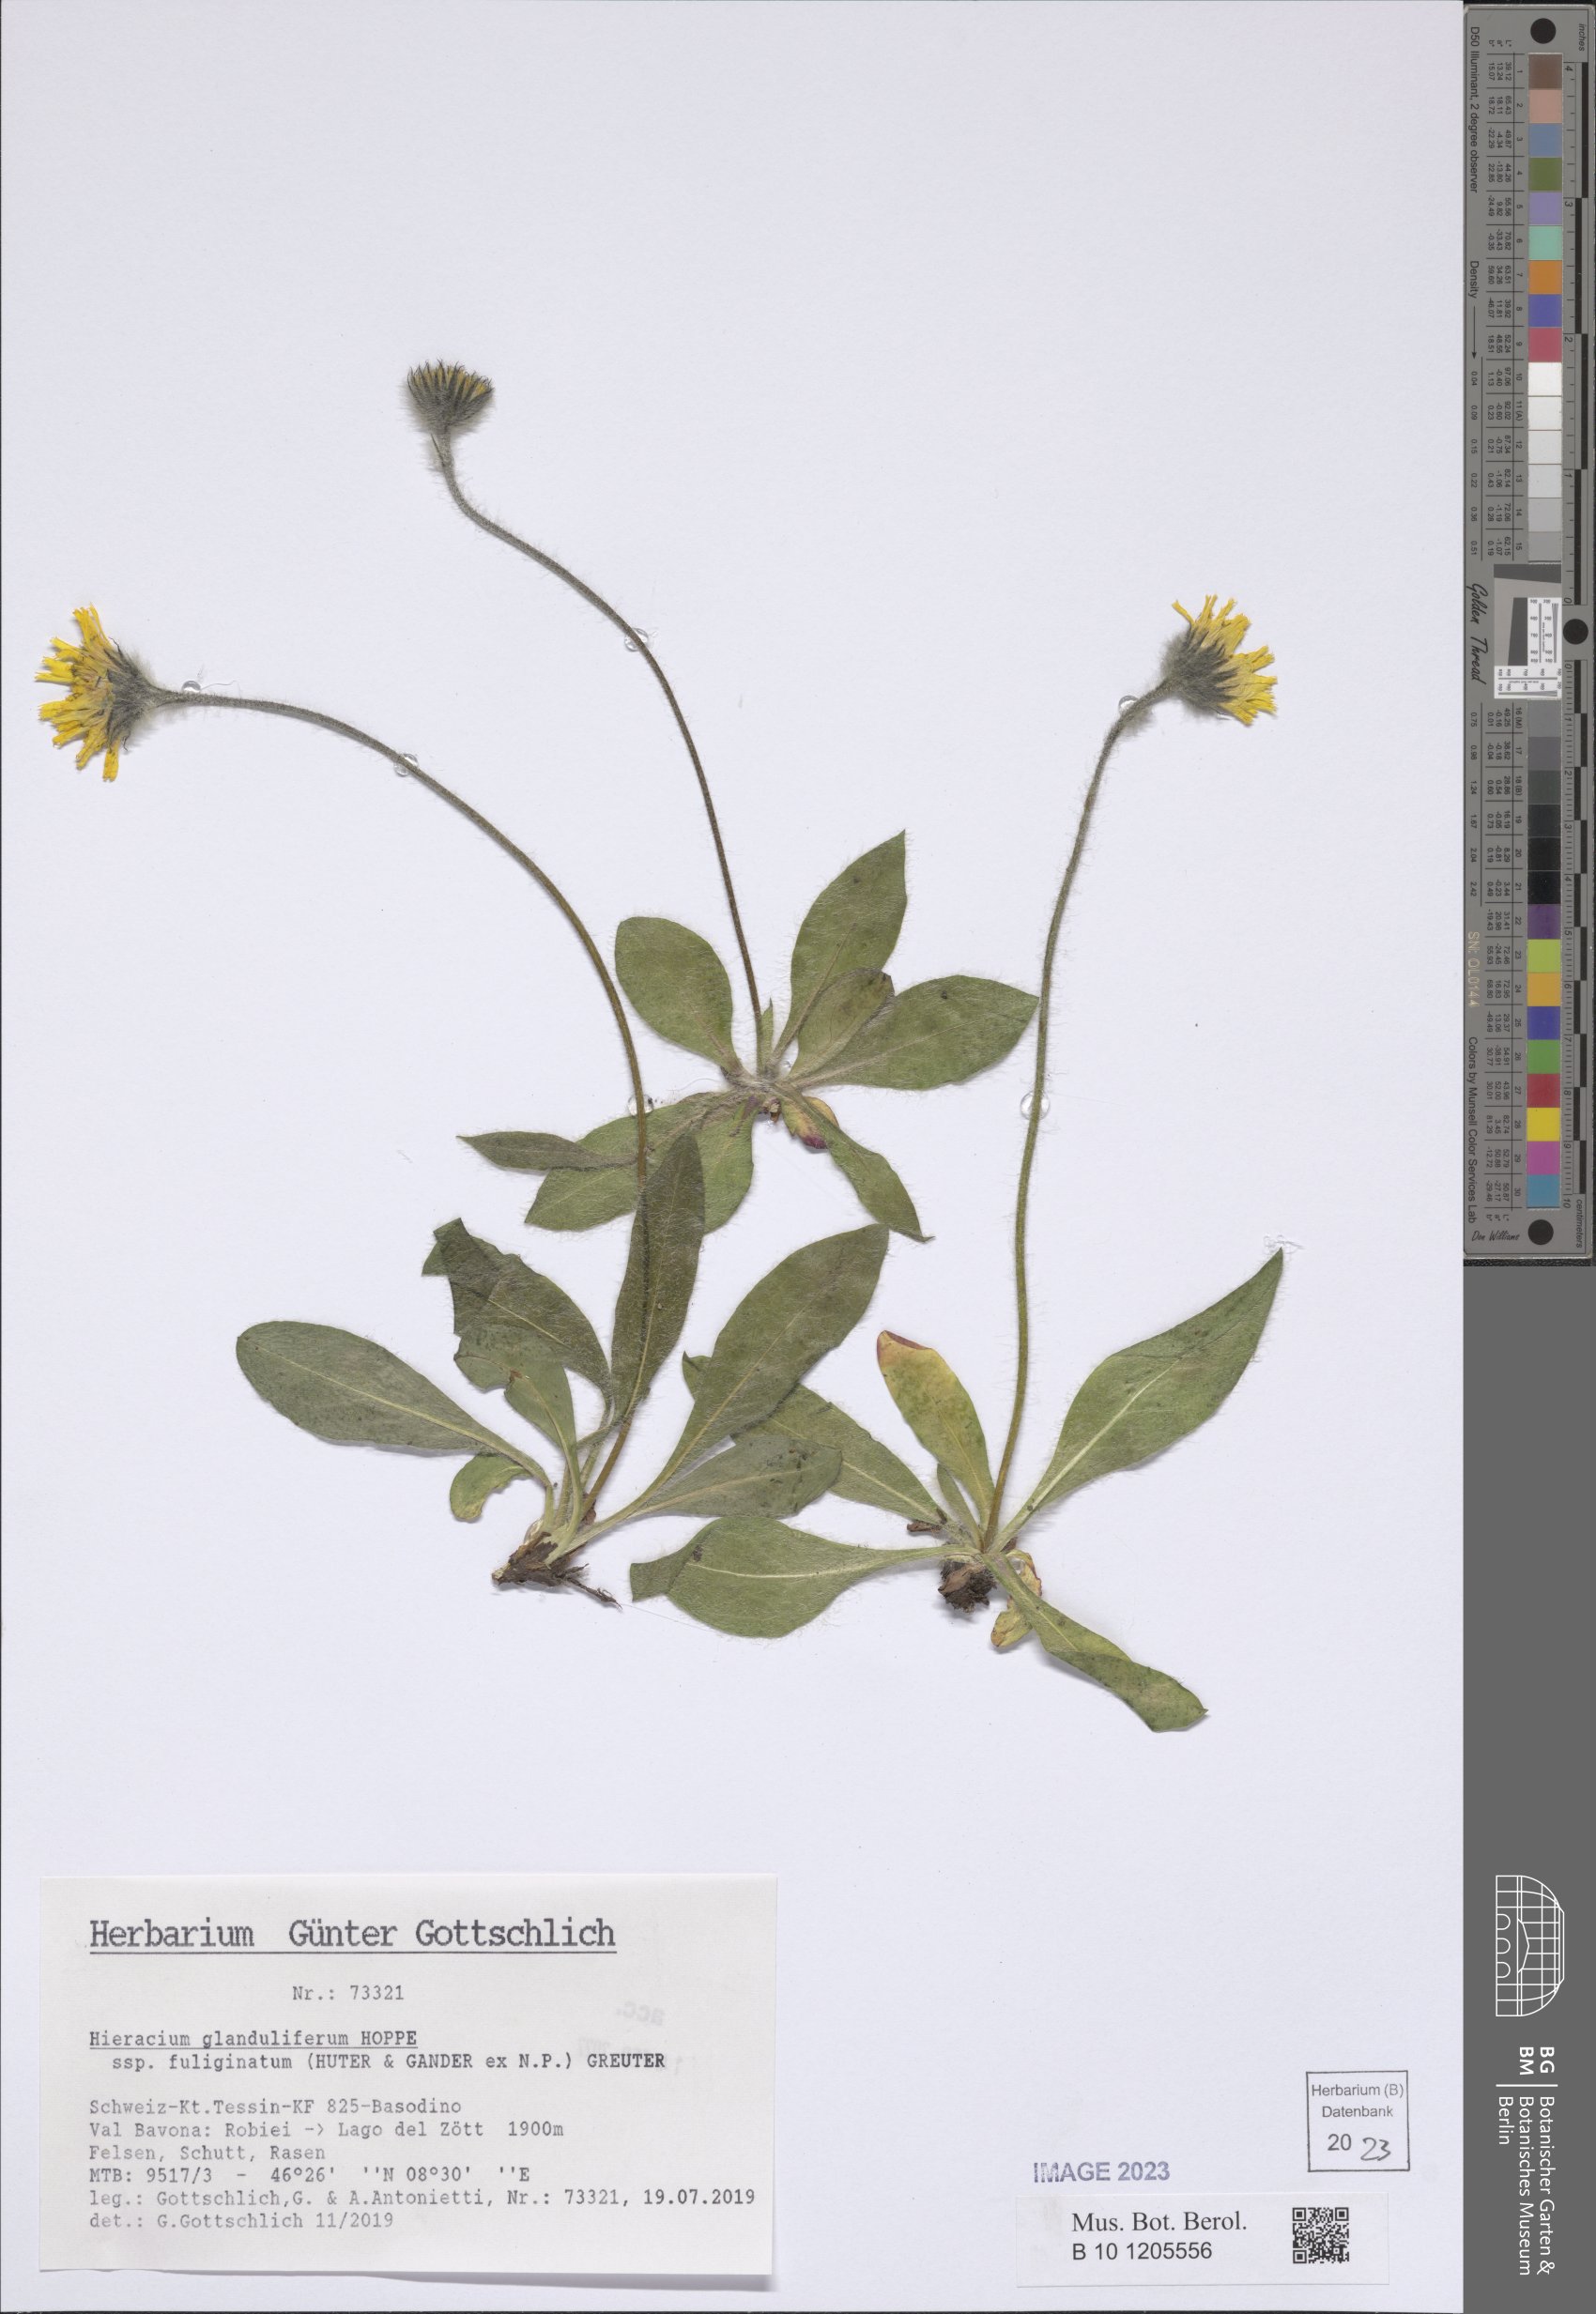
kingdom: Plantae
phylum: Tracheophyta
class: Magnoliopsida
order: Asterales
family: Asteraceae
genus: Hieracium
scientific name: Hieracium piliferum
